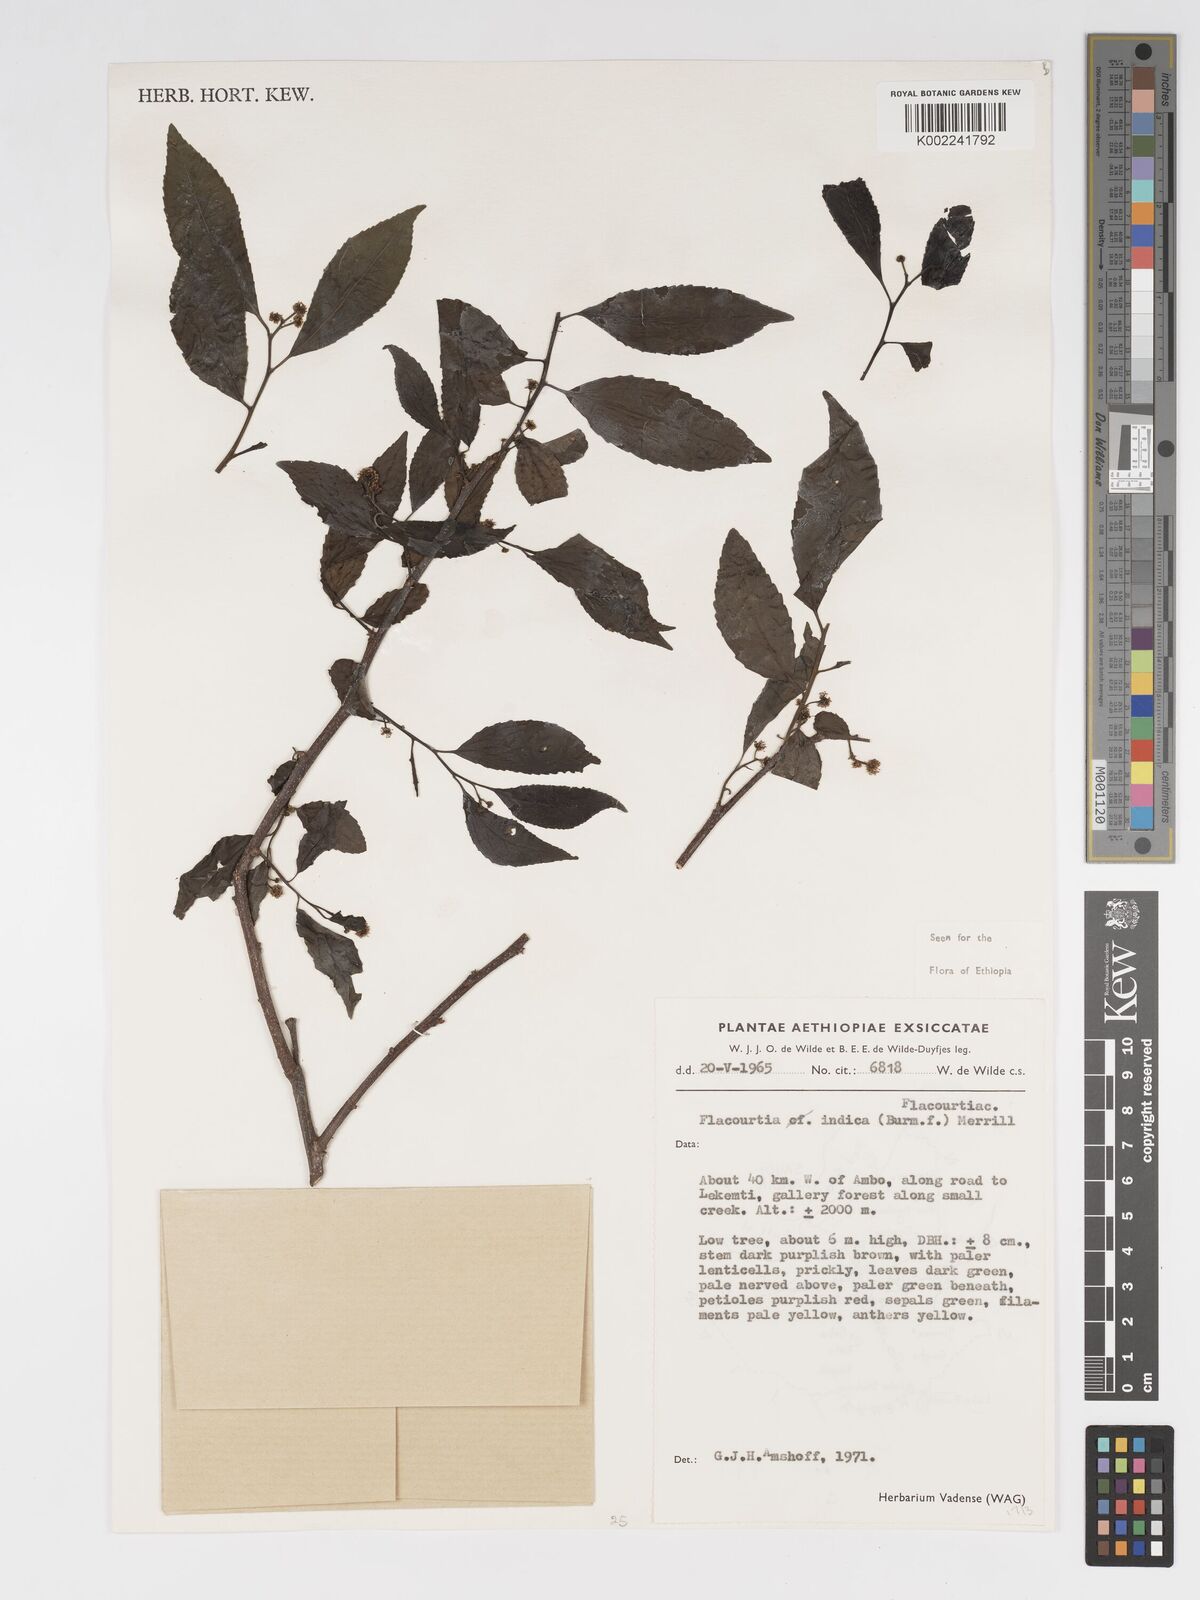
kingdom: Plantae
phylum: Tracheophyta
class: Magnoliopsida
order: Malpighiales
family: Salicaceae
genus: Flacourtia
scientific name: Flacourtia indica
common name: Governor's plum
